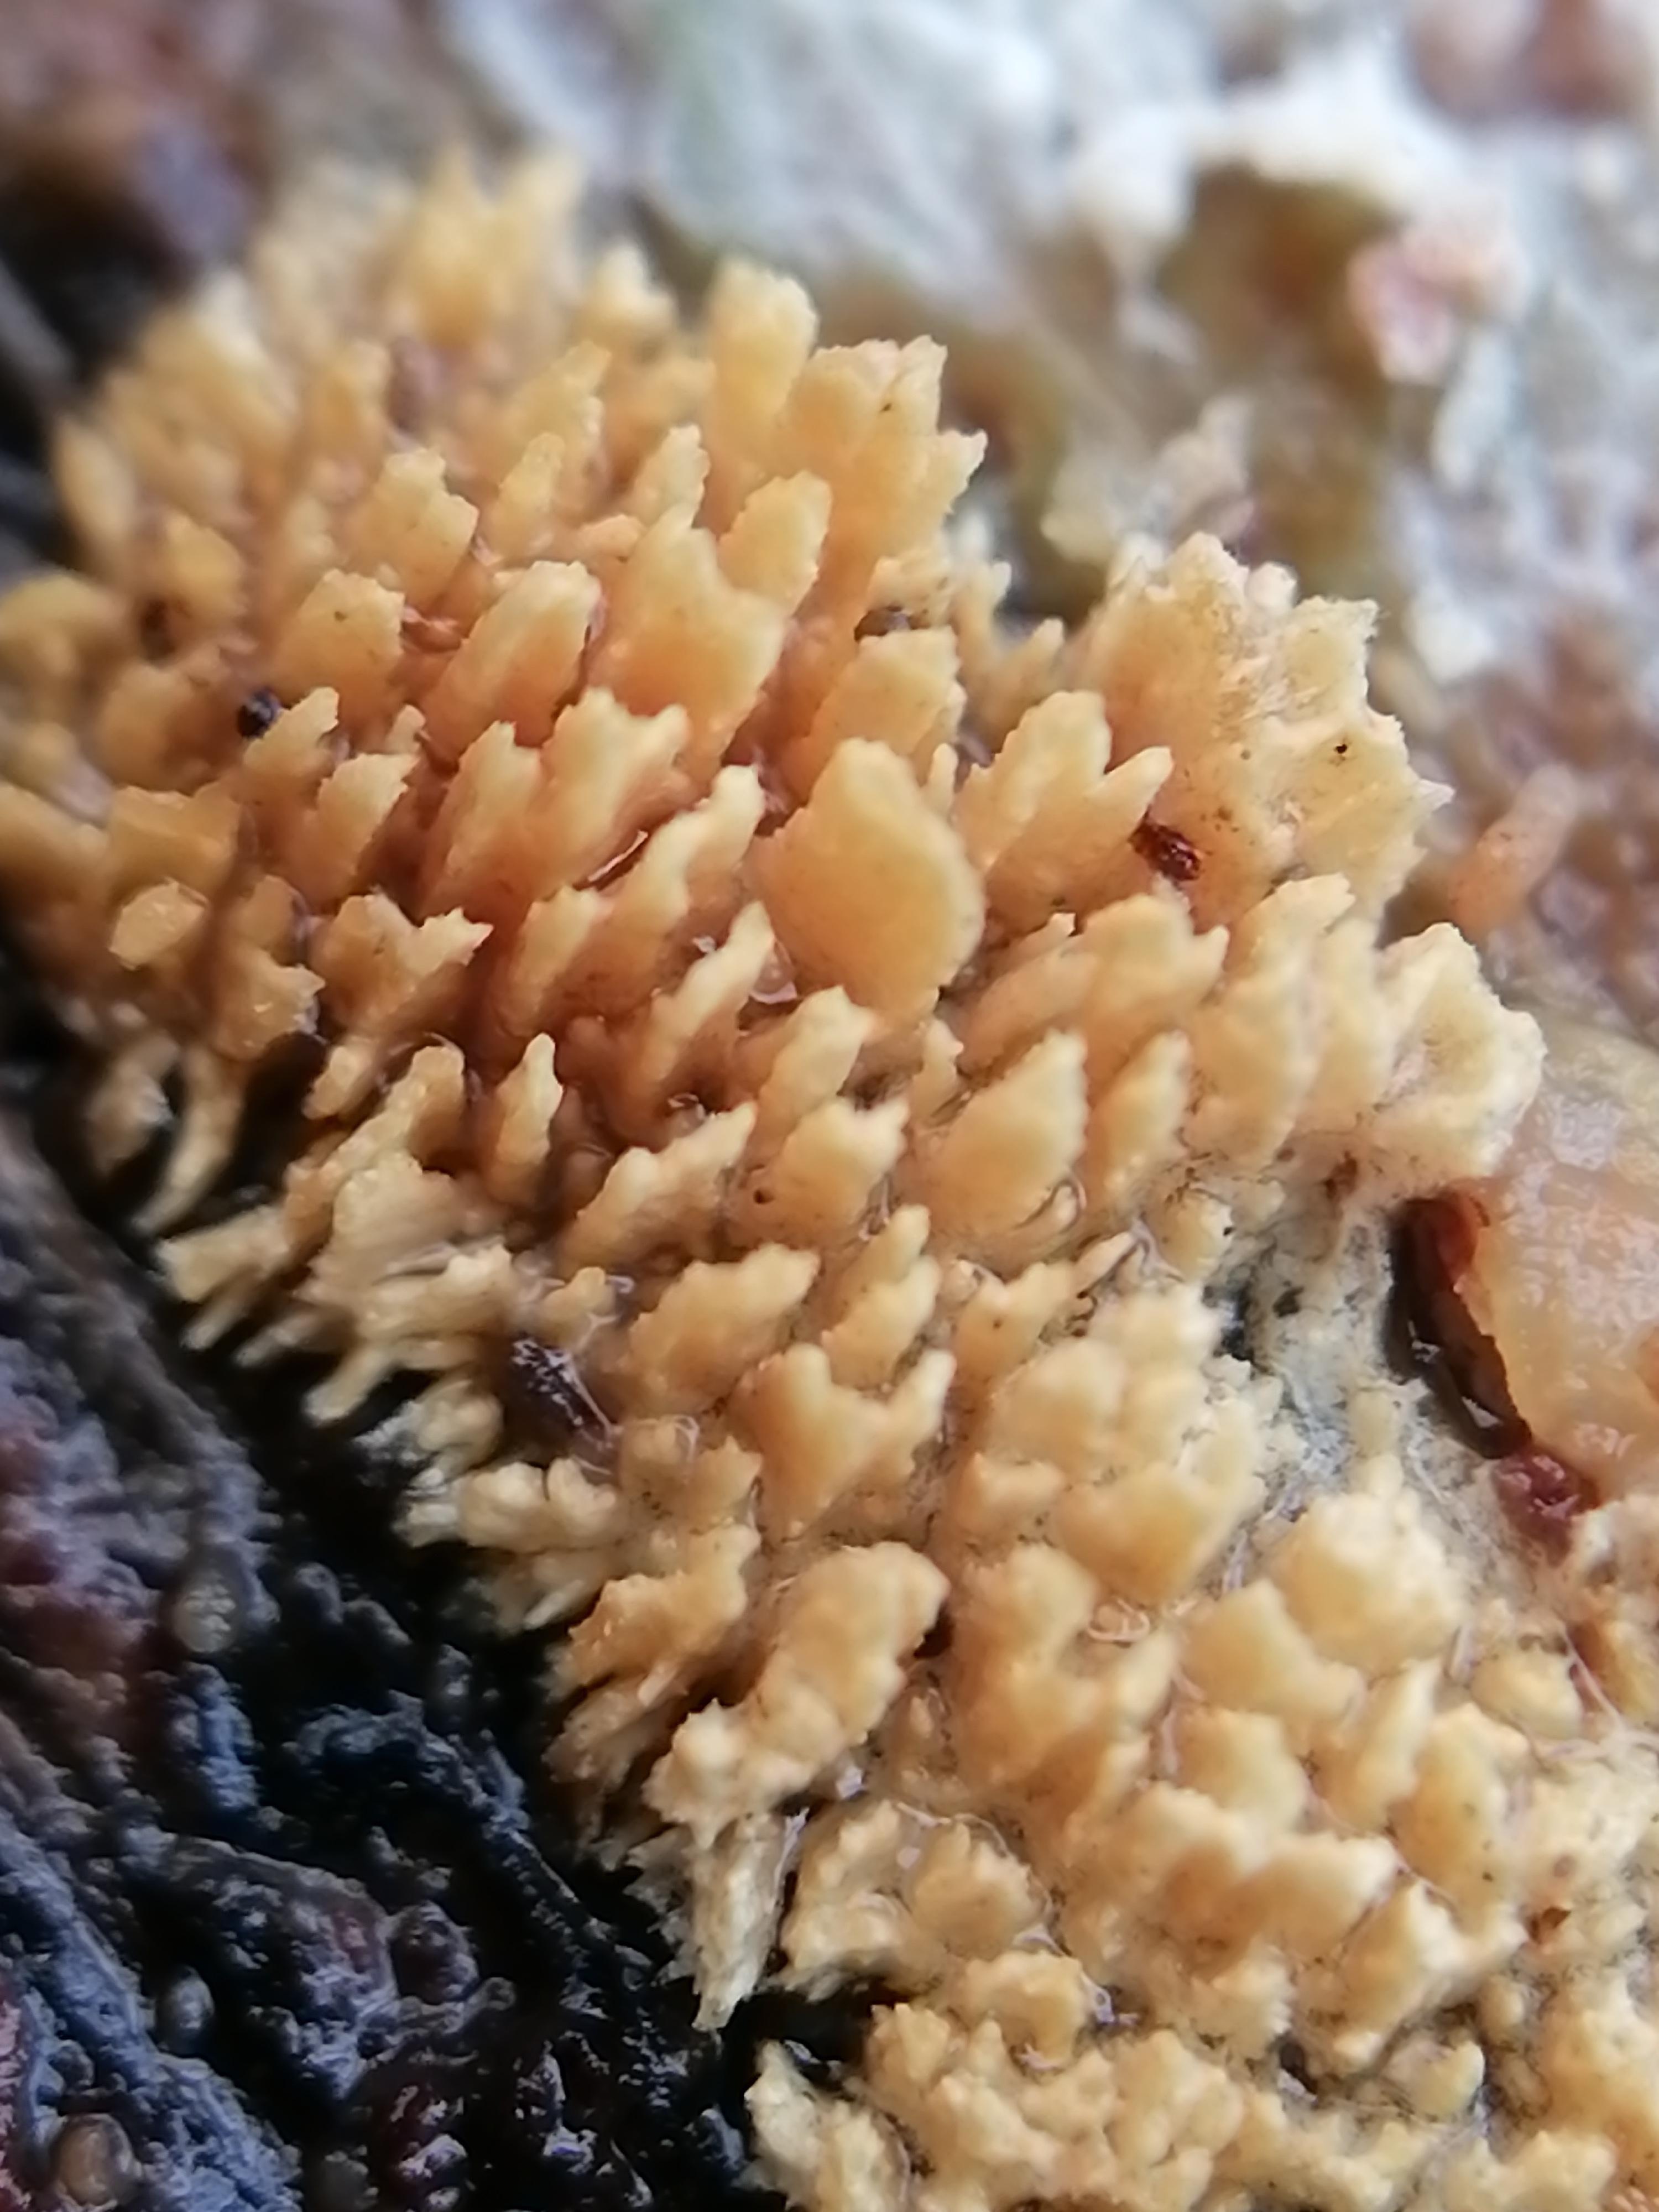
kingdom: Fungi
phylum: Basidiomycota
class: Agaricomycetes
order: Hymenochaetales
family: Schizoporaceae
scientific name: Schizoporaceae
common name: tandsvampfamilien
